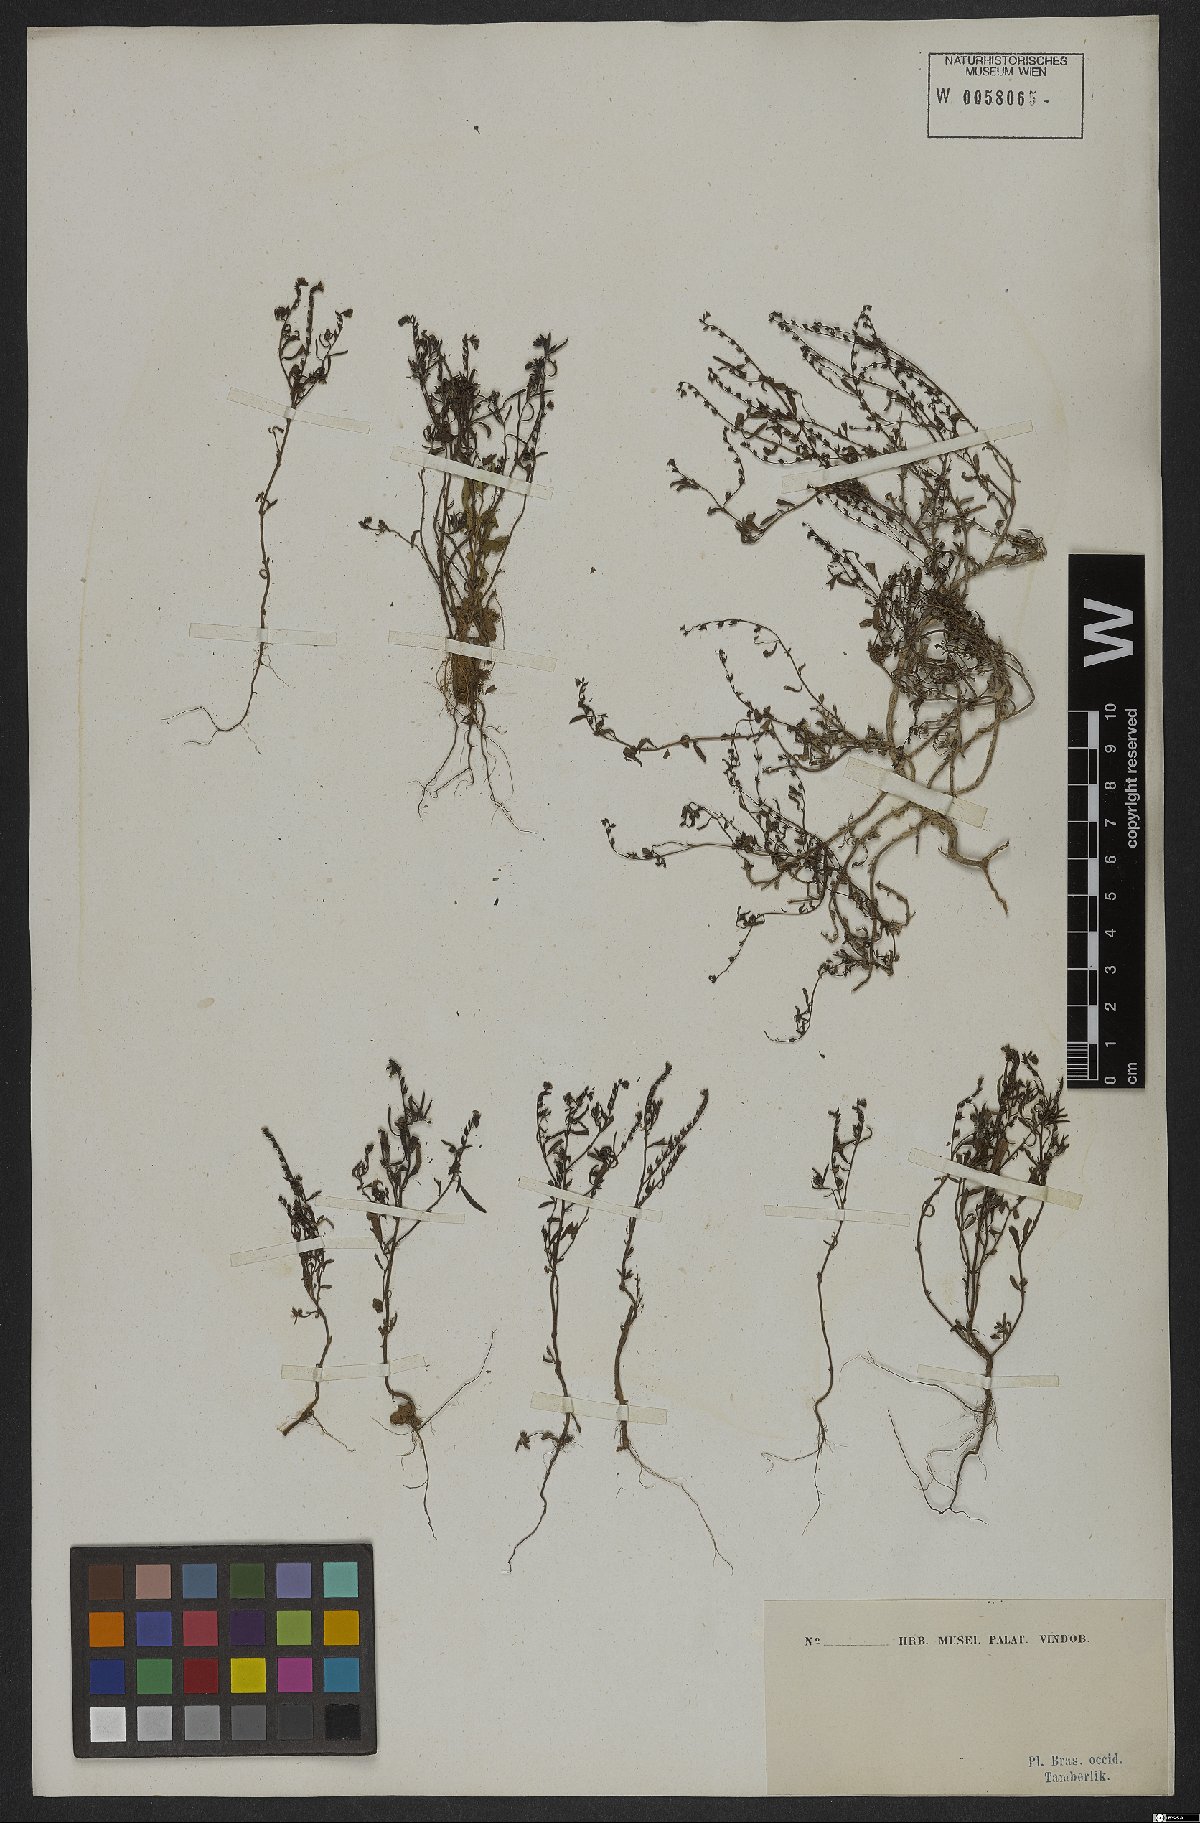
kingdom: Plantae
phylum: Tracheophyta
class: Magnoliopsida
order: Boraginales
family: Heliotropiaceae
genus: Euploca
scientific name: Euploca filiformis
